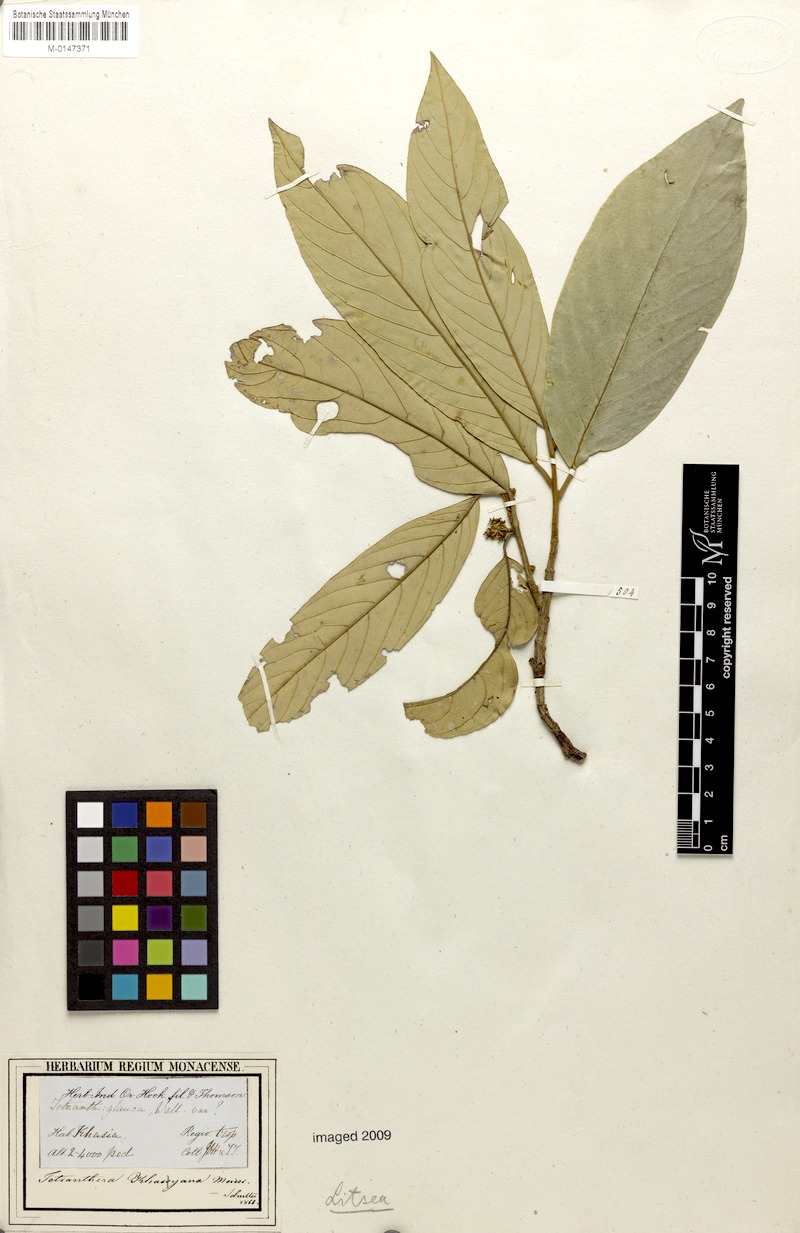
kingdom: Plantae
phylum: Tracheophyta
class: Magnoliopsida
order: Laurales
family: Lauraceae
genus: Neolitsea
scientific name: Neolitsea sericea
